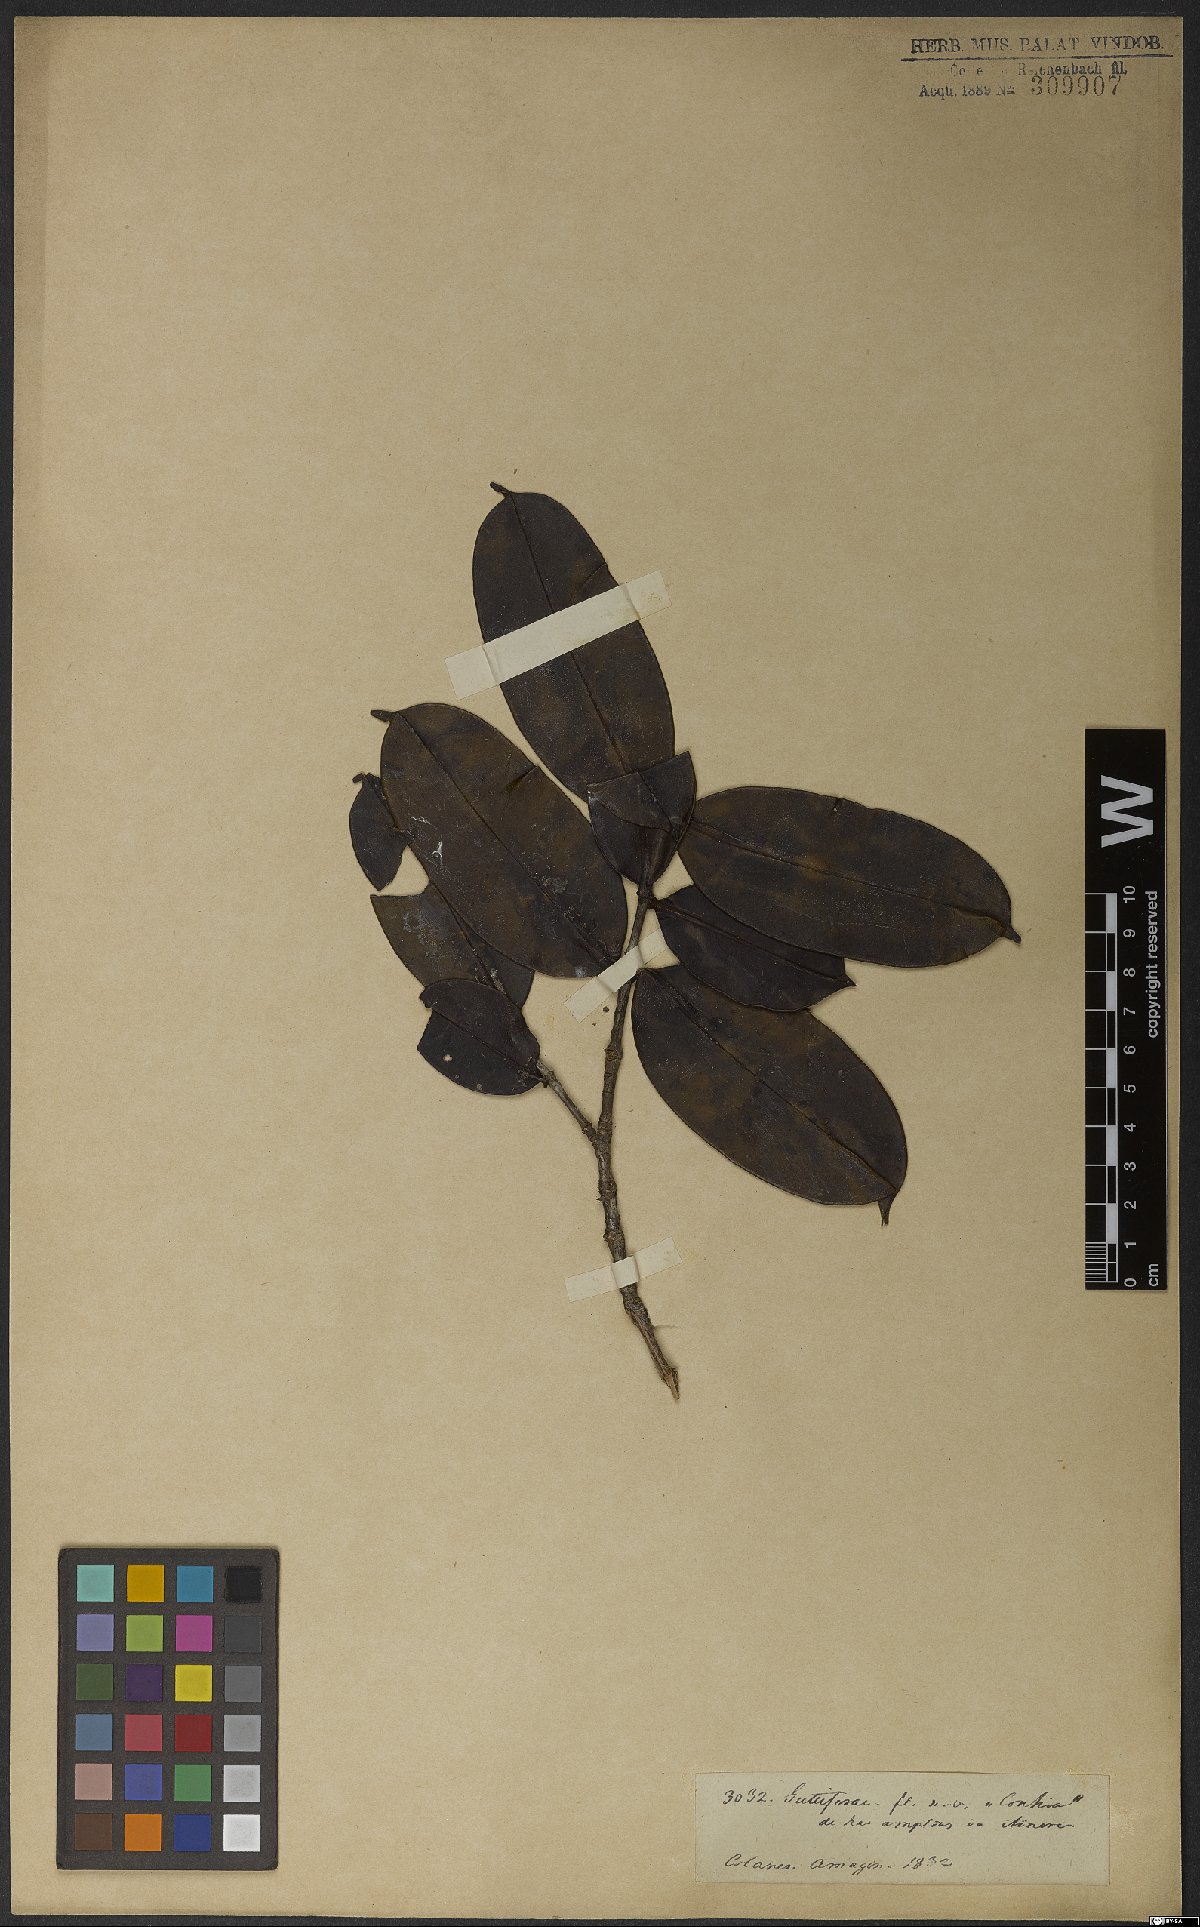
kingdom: Plantae
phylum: Tracheophyta
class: Magnoliopsida
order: Myrtales
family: Melastomataceae
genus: Mouriri
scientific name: Mouriri
